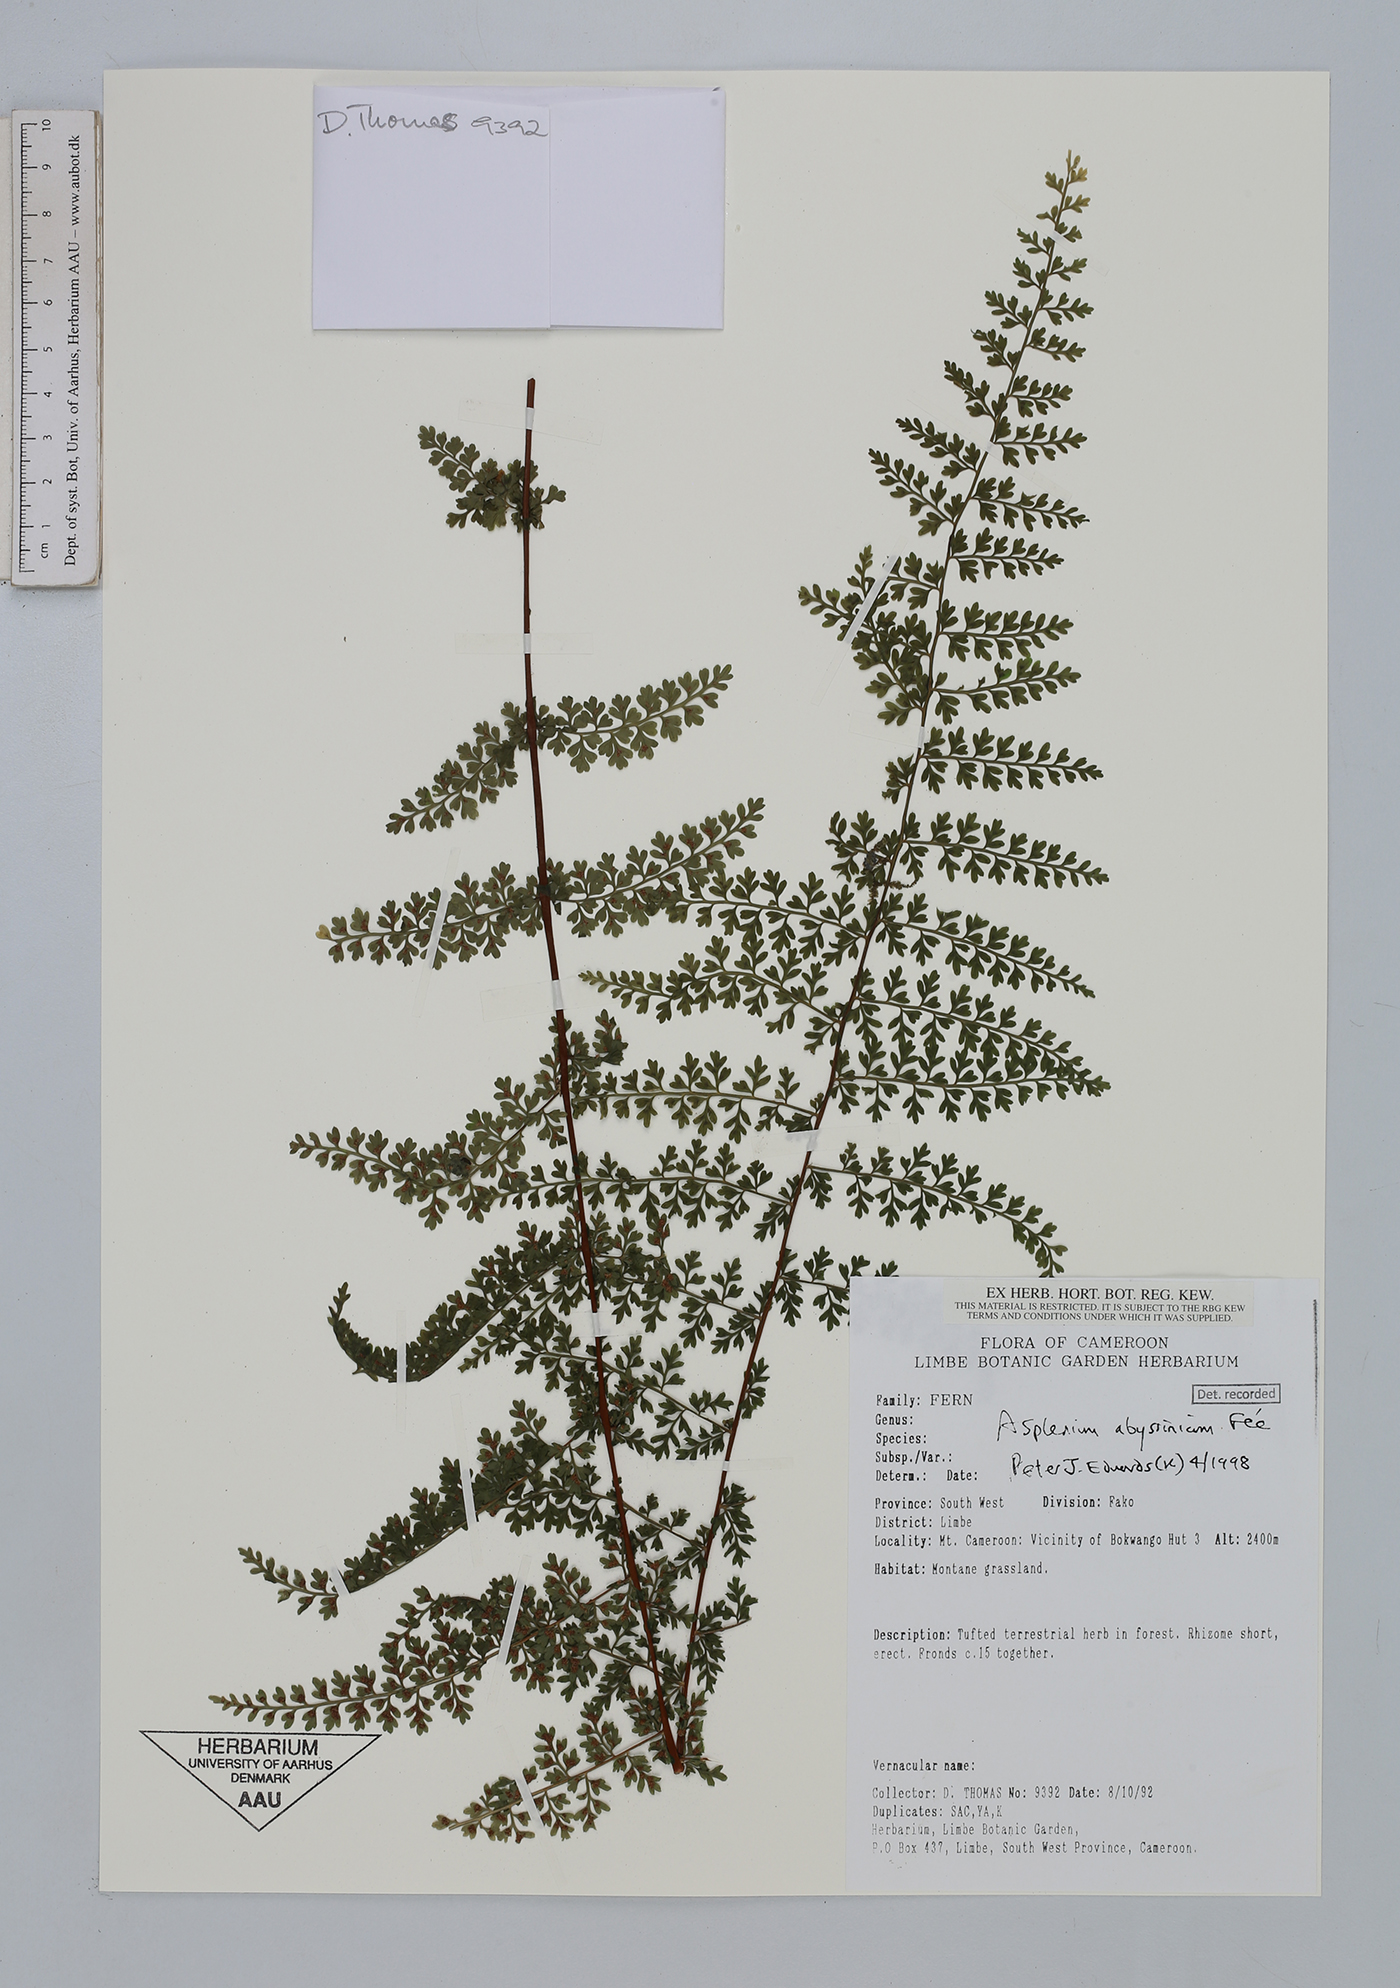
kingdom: Plantae
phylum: Tracheophyta
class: Polypodiopsida
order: Polypodiales
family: Aspleniaceae
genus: Asplenium
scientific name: Asplenium abyssinicum
